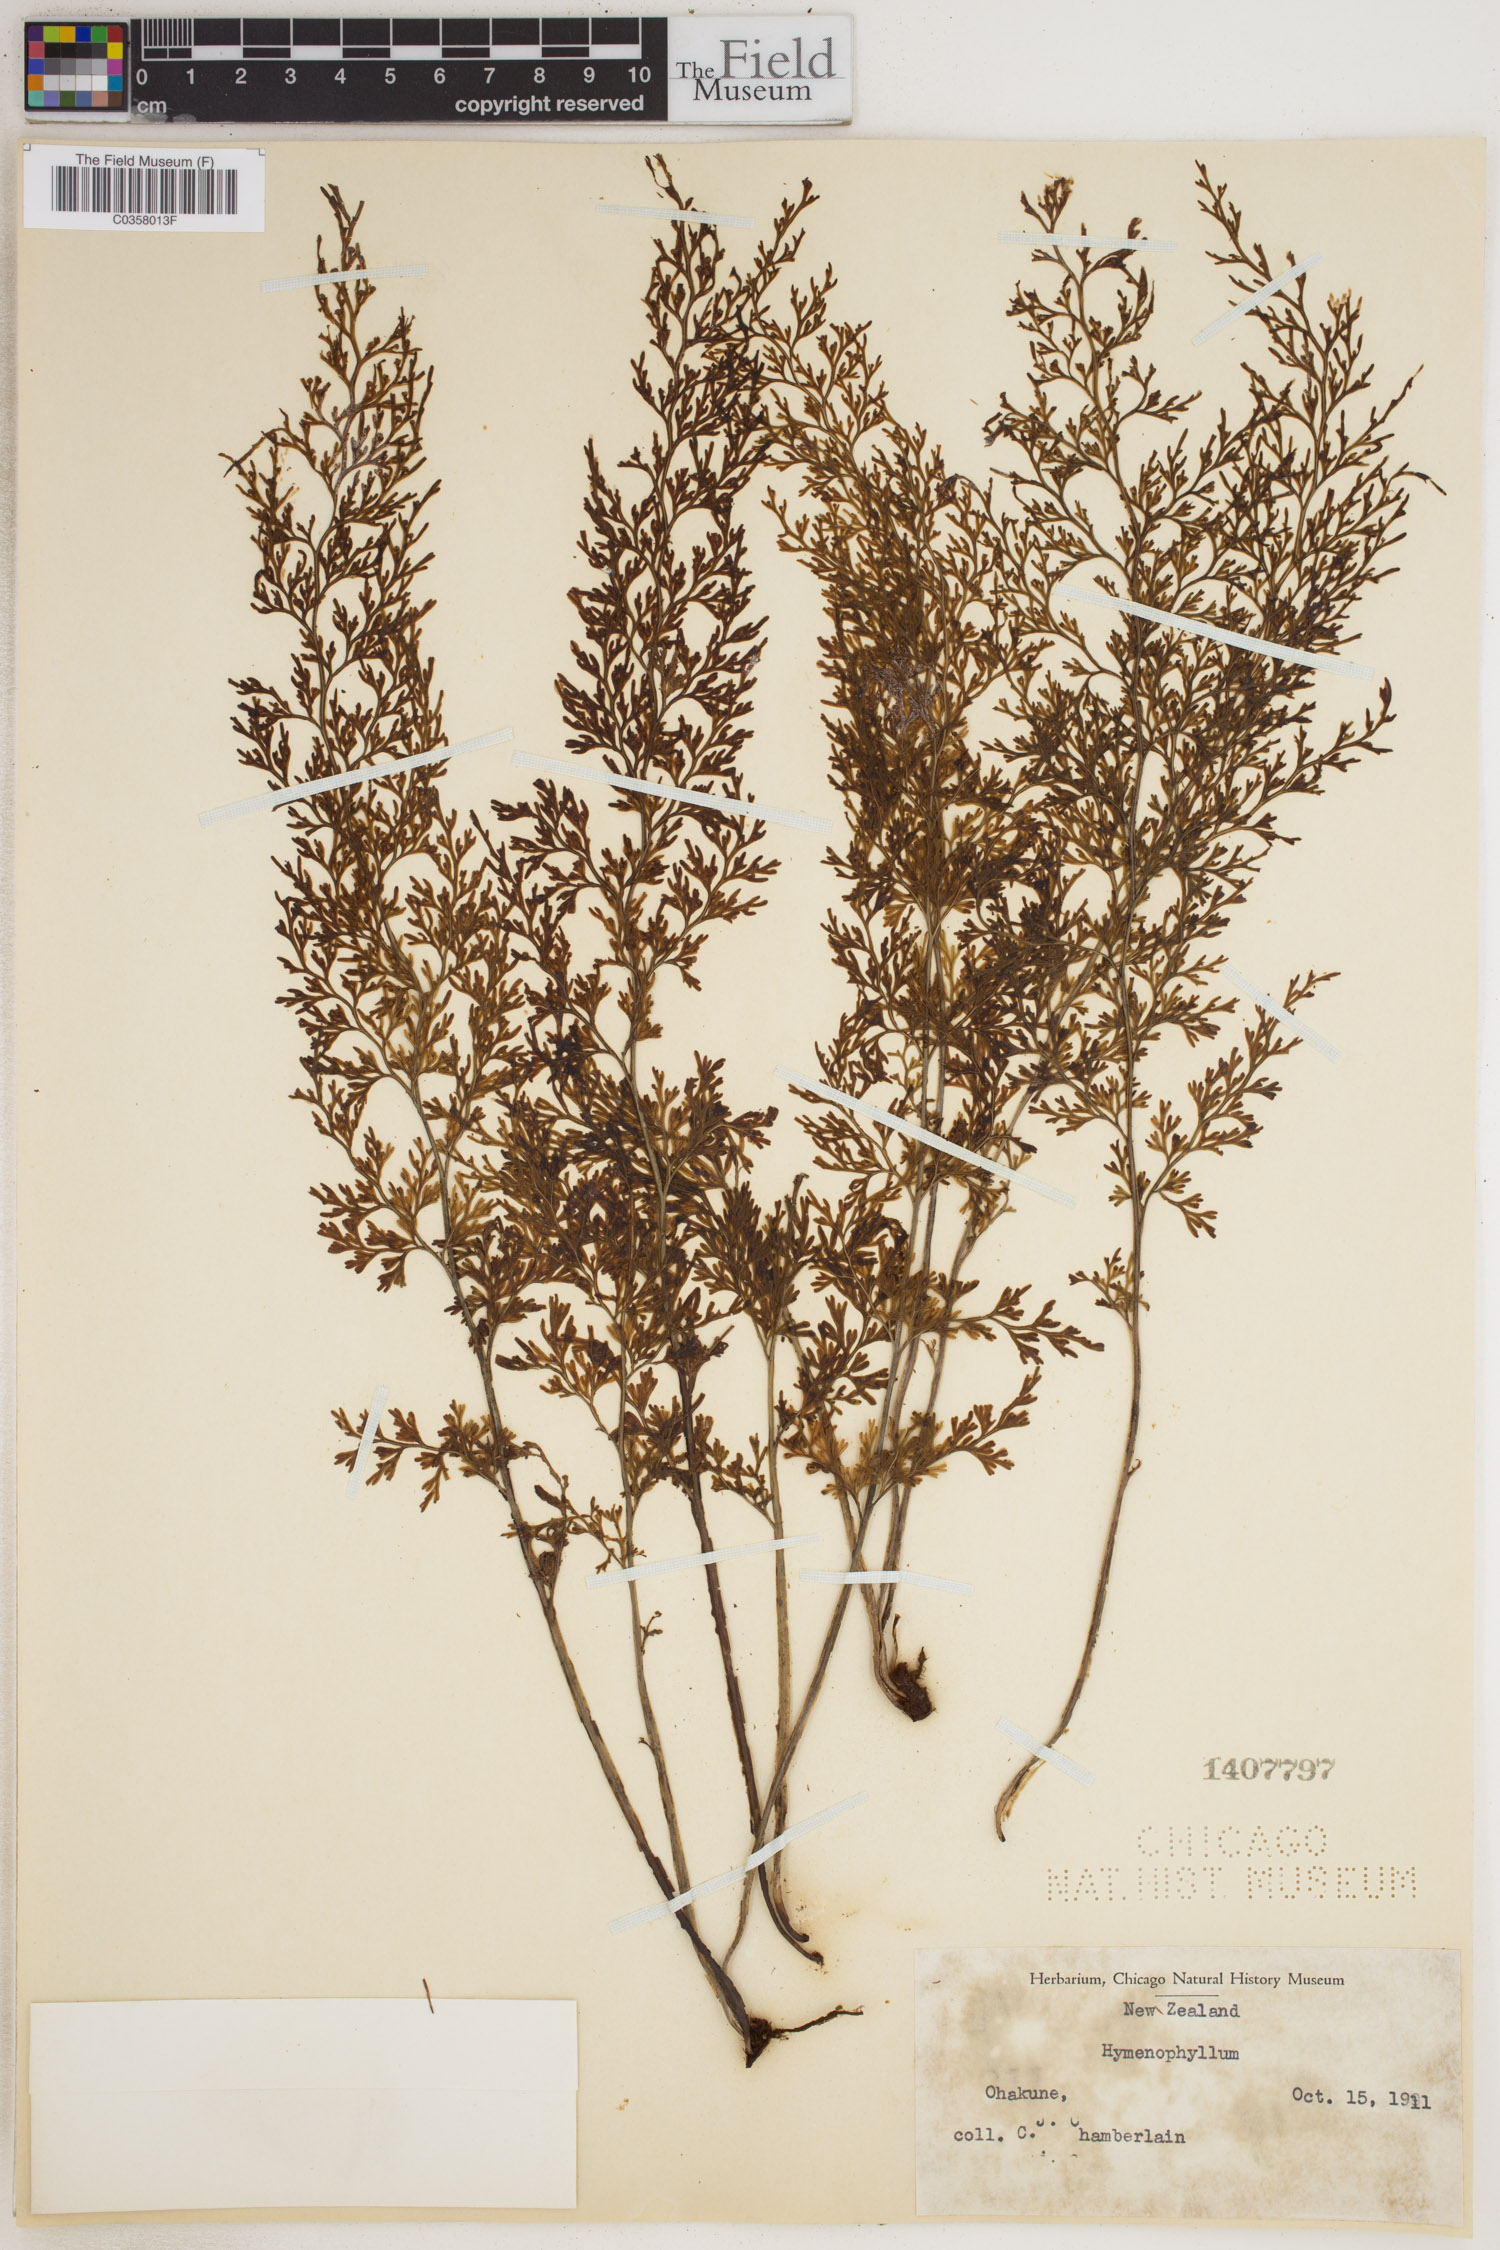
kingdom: Plantae
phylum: Tracheophyta
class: Polypodiopsida
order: Hymenophyllales
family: Hymenophyllaceae
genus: Hymenophyllum
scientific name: Hymenophyllum
